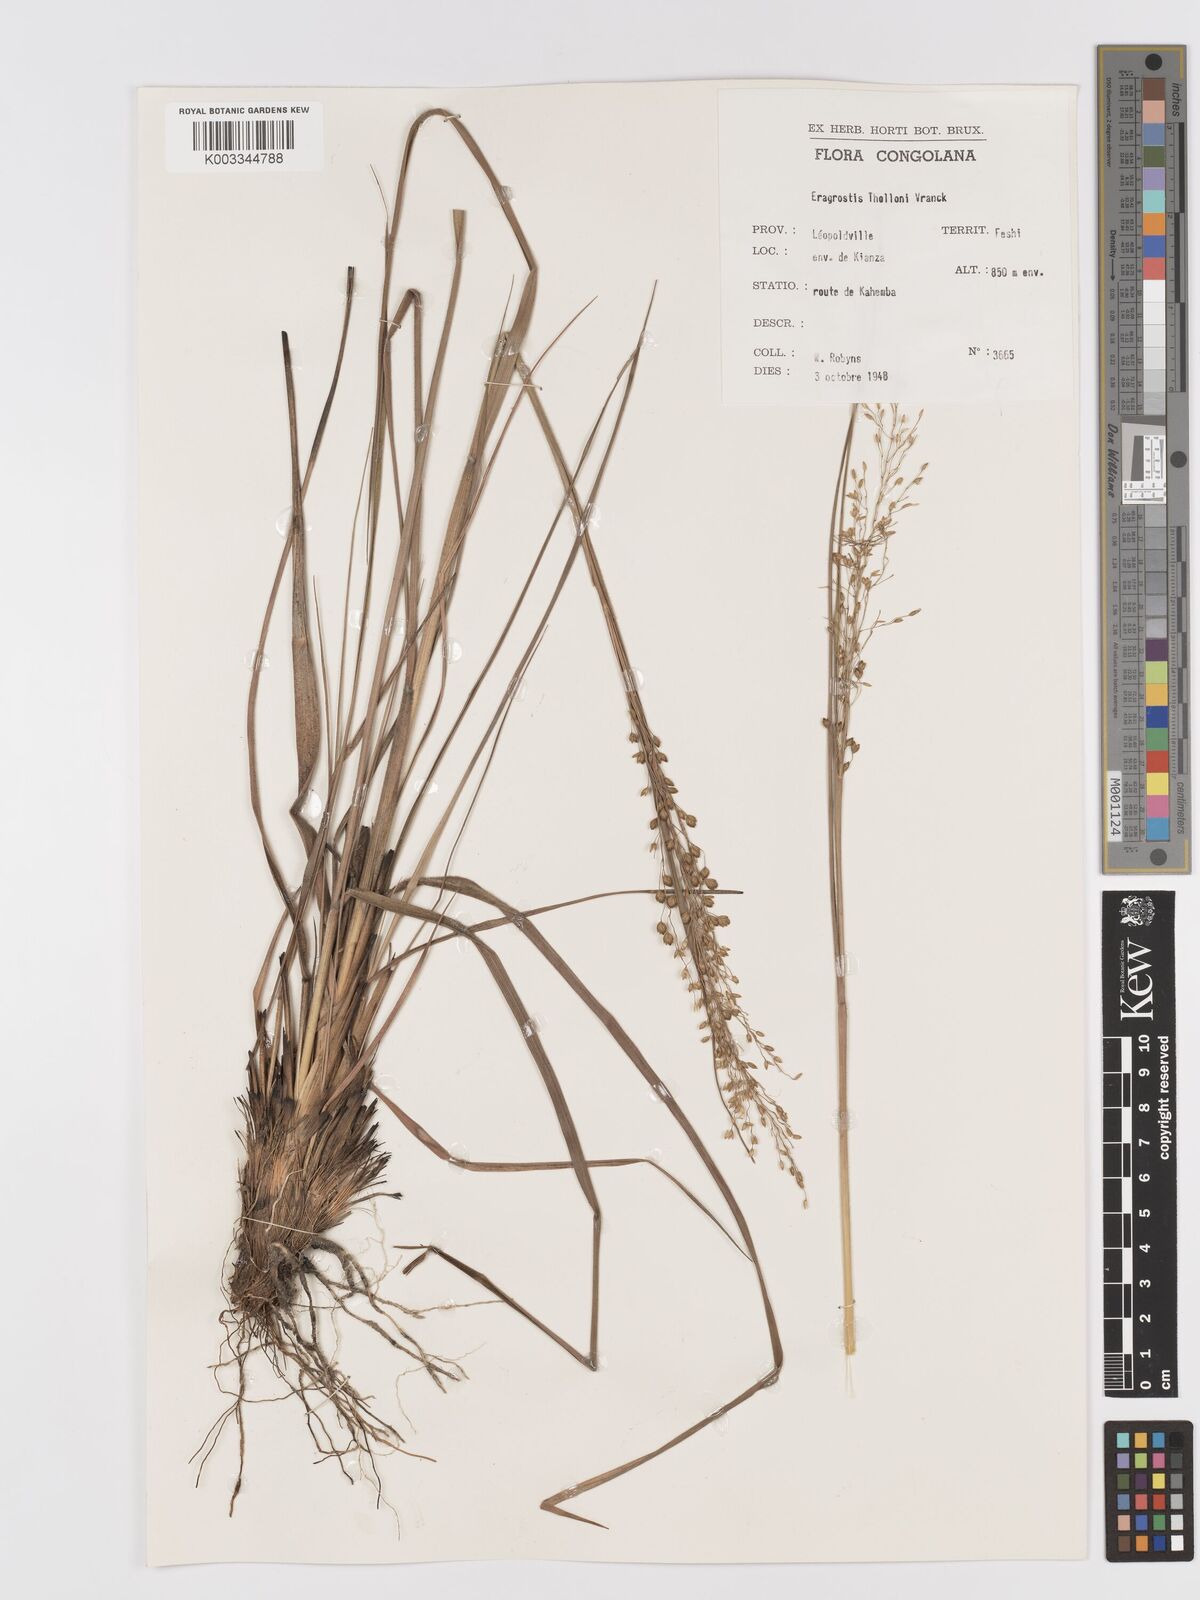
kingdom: Plantae
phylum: Tracheophyta
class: Liliopsida
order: Poales
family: Poaceae
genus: Eragrostis
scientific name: Eragrostis thollonii
